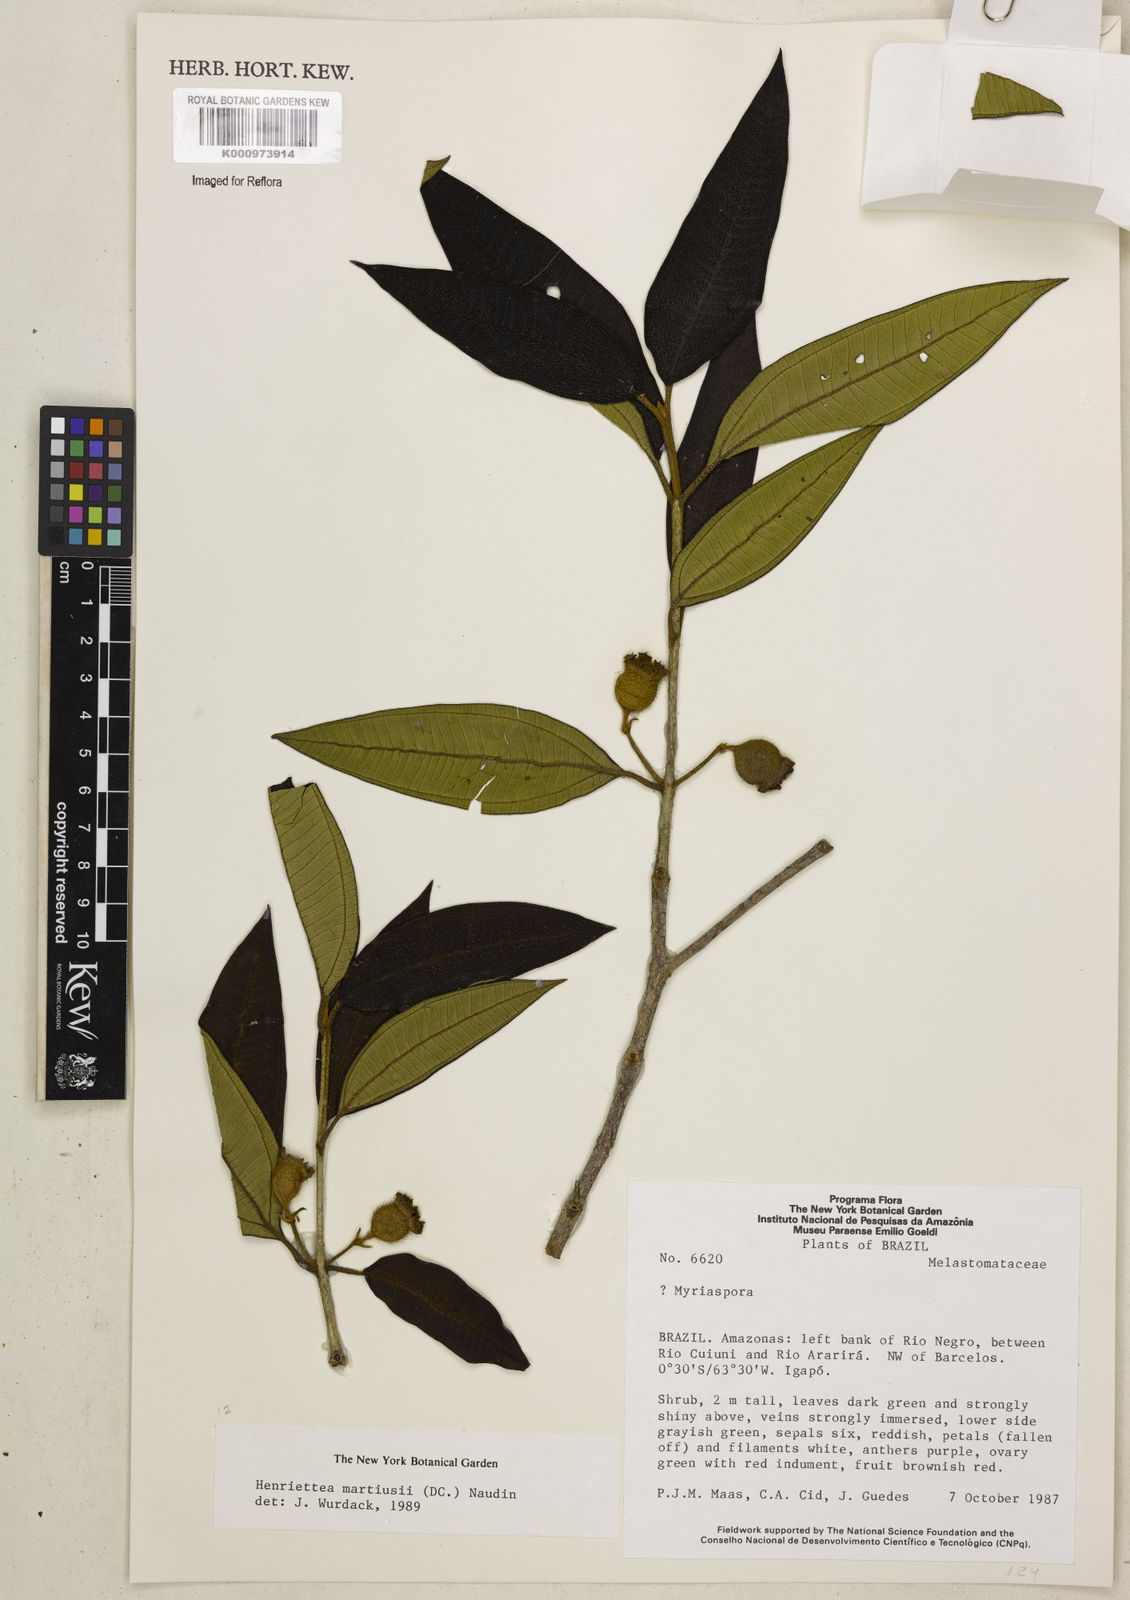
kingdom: Plantae
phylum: Tracheophyta
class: Magnoliopsida
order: Myrtales
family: Melastomataceae
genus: Henriettea
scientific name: Henriettea martiusii
